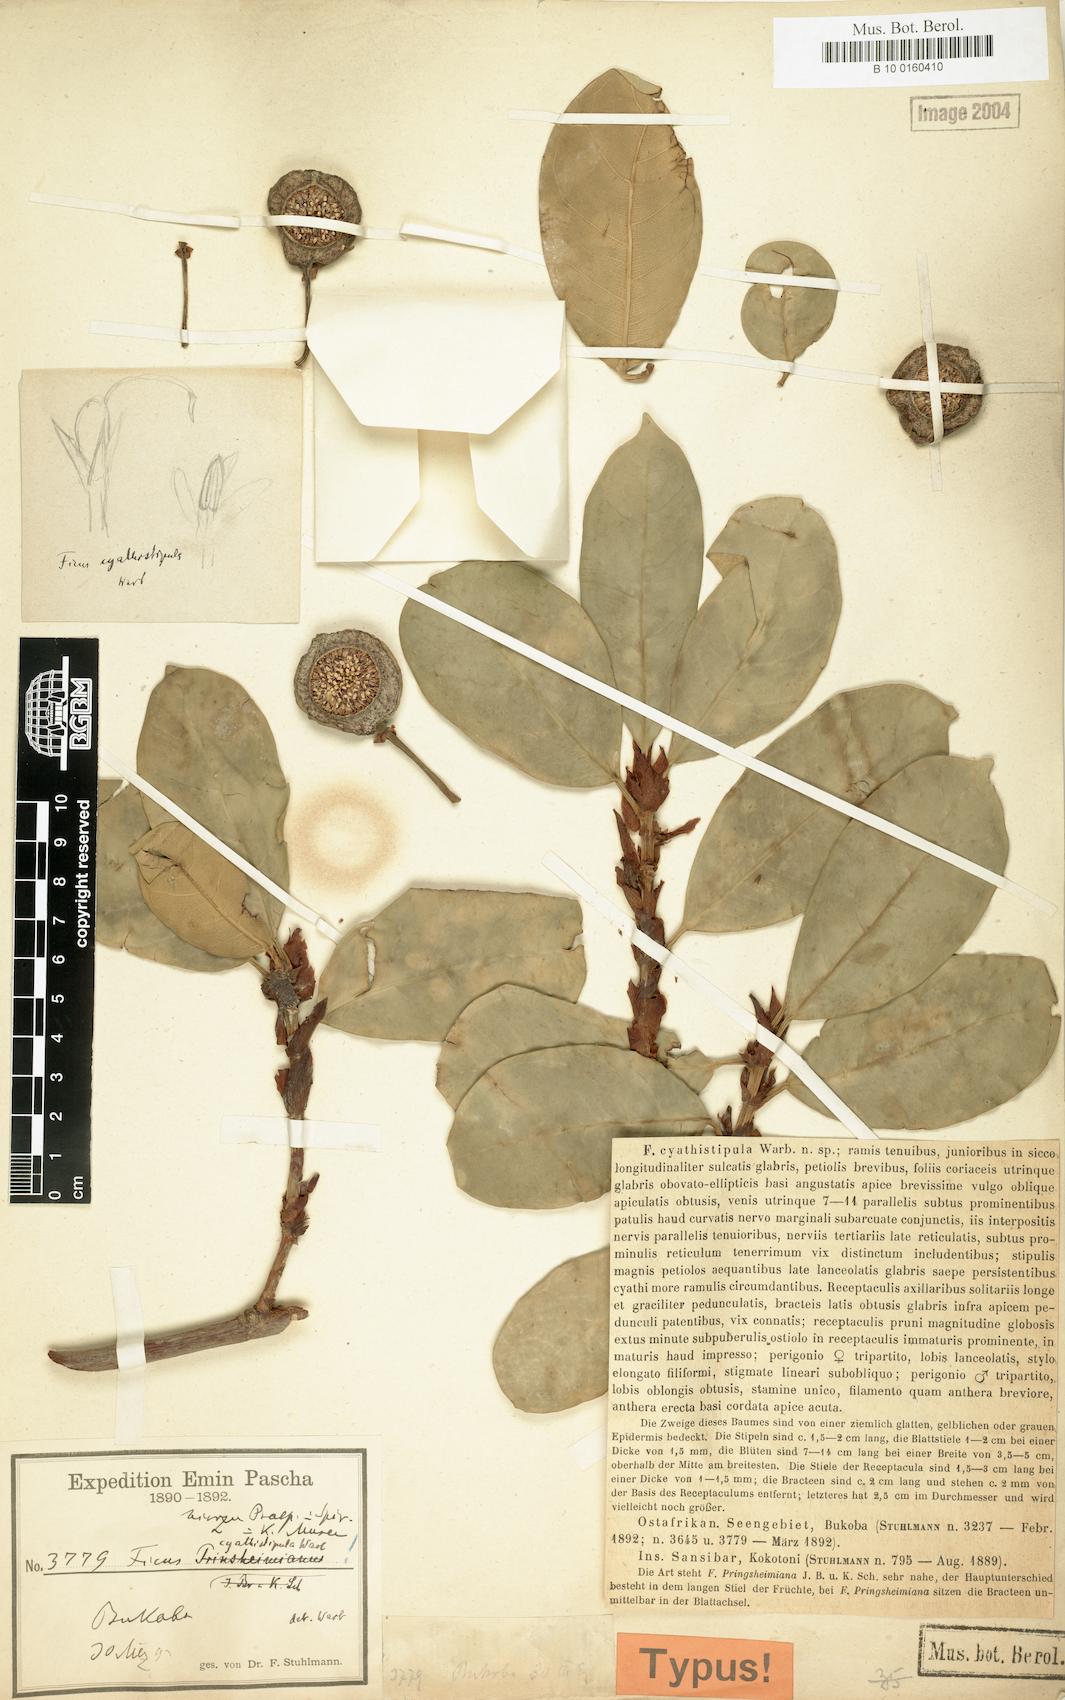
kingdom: Plantae
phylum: Tracheophyta
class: Magnoliopsida
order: Rosales
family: Moraceae
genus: Ficus
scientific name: Ficus cyathistipula
